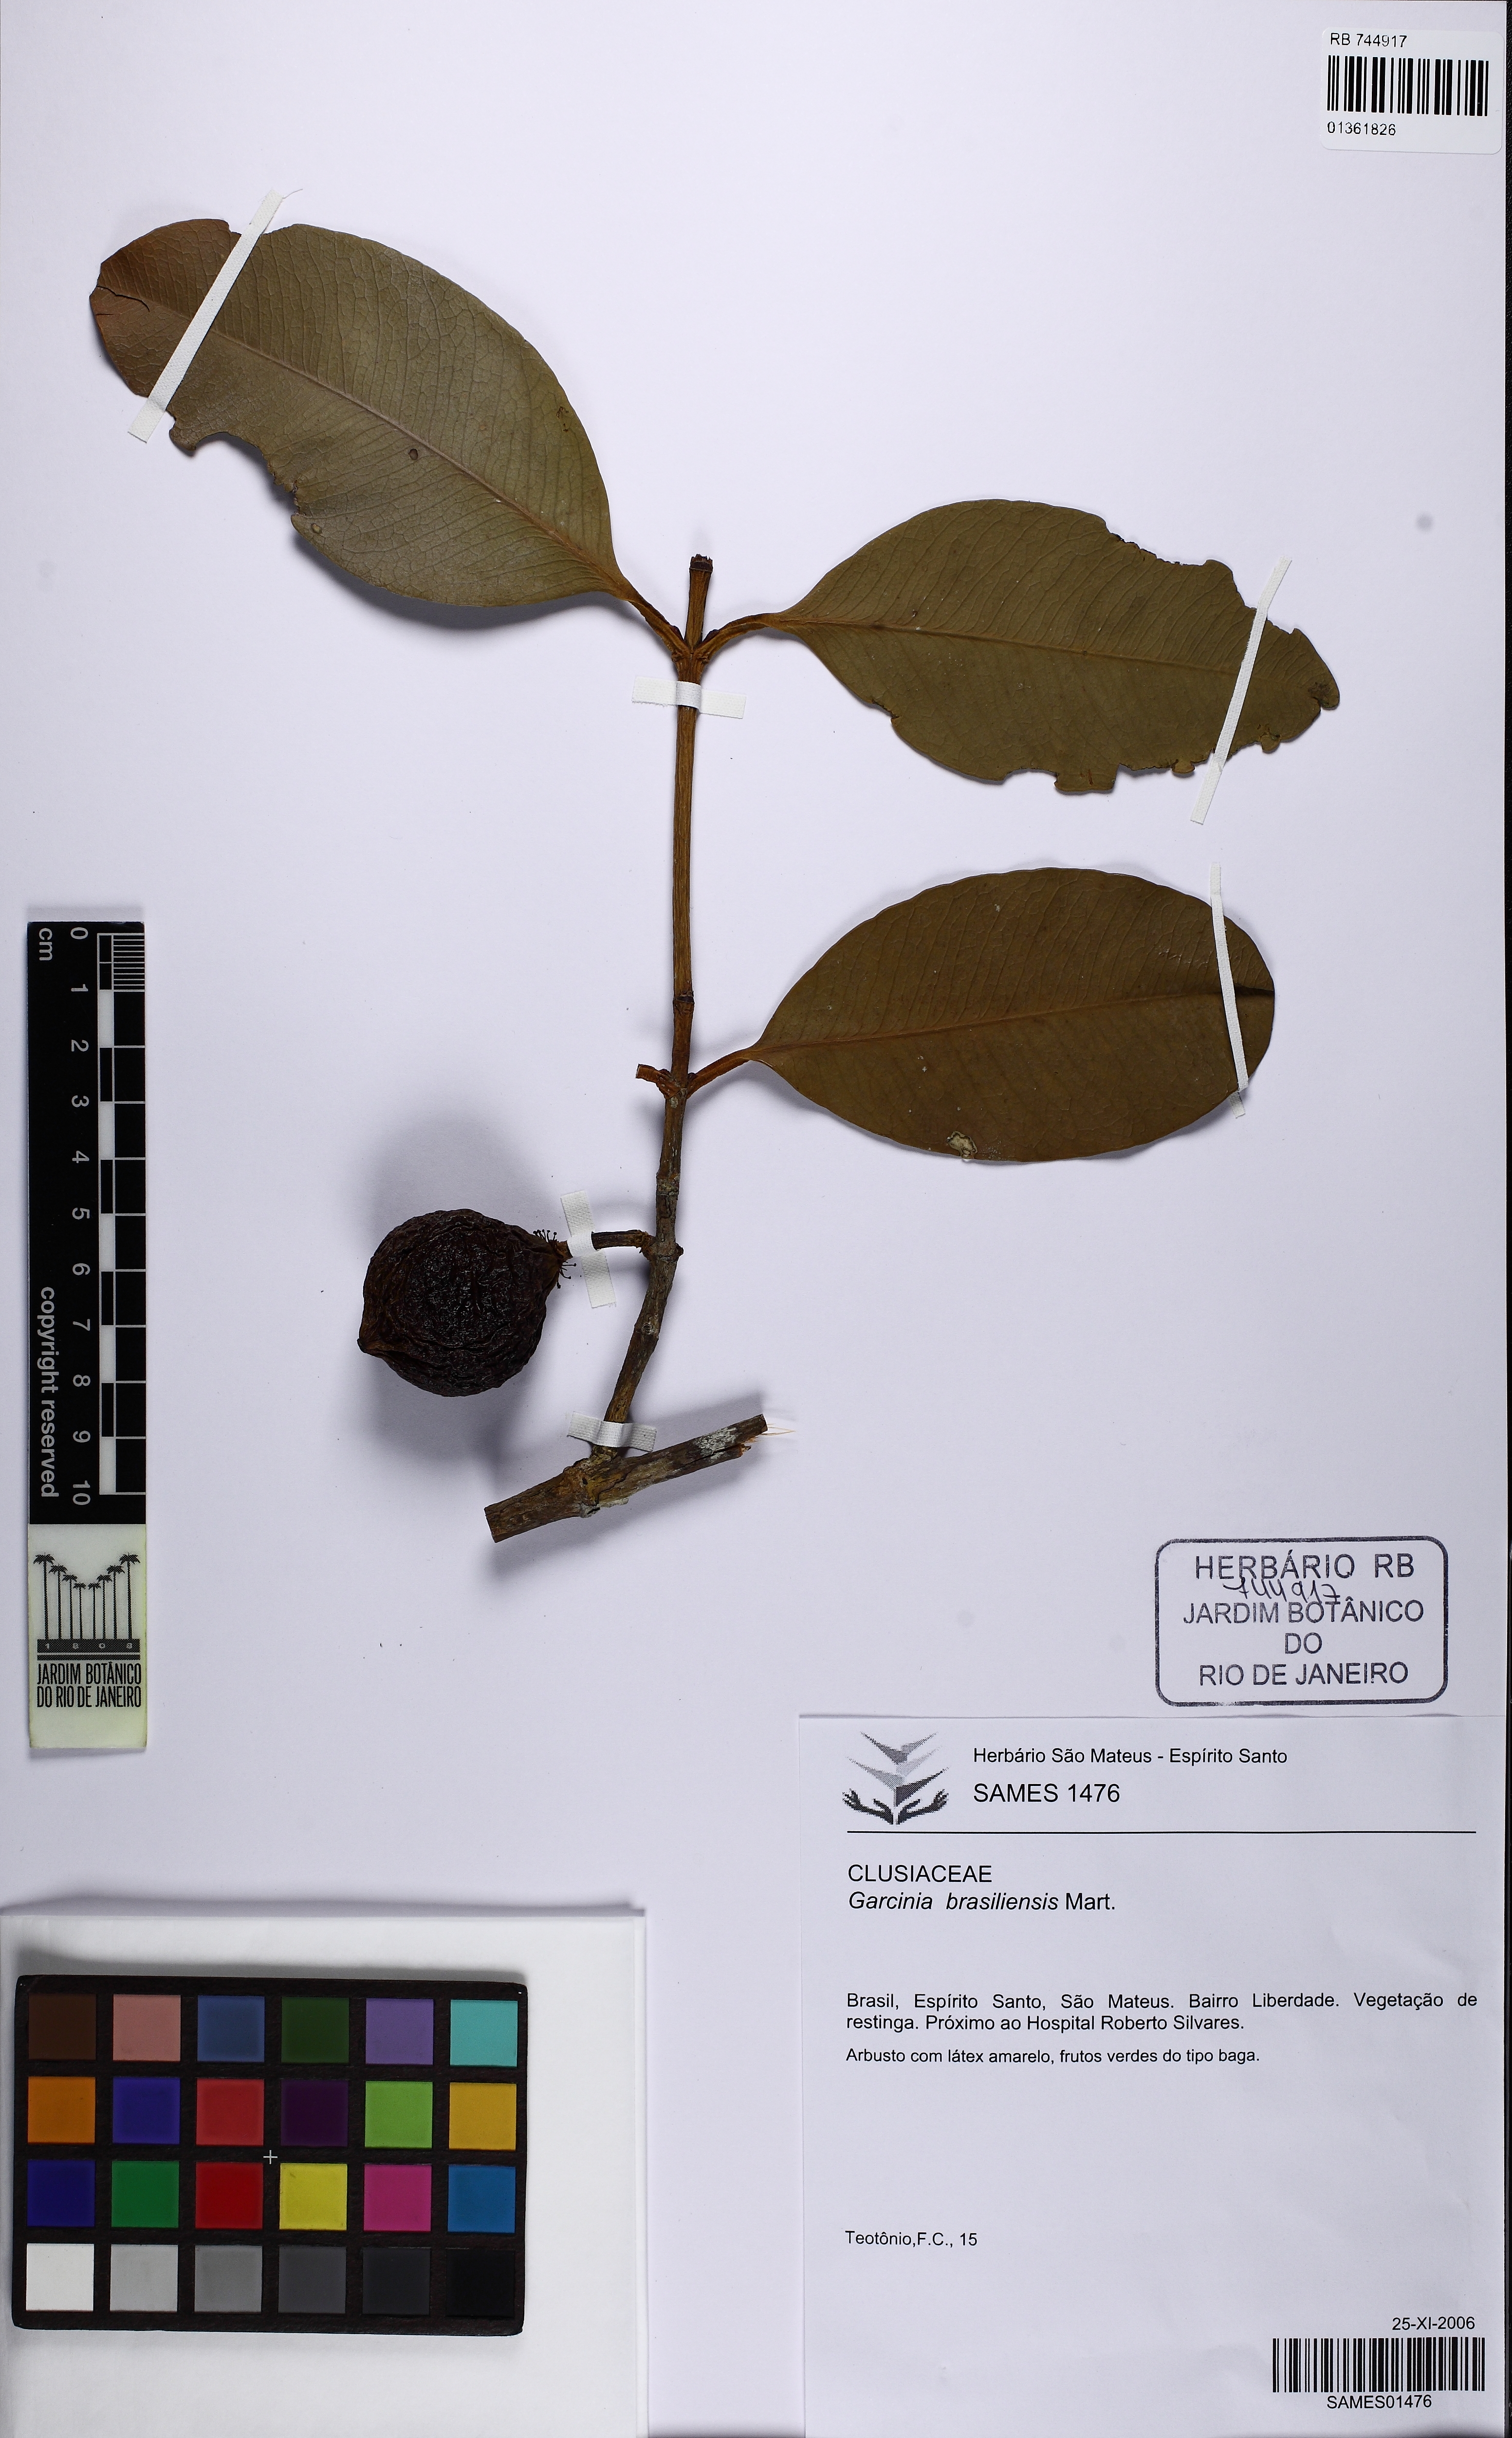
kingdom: Plantae
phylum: Tracheophyta
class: Magnoliopsida
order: Malpighiales
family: Clusiaceae
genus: Garcinia
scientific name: Garcinia brasiliensis
